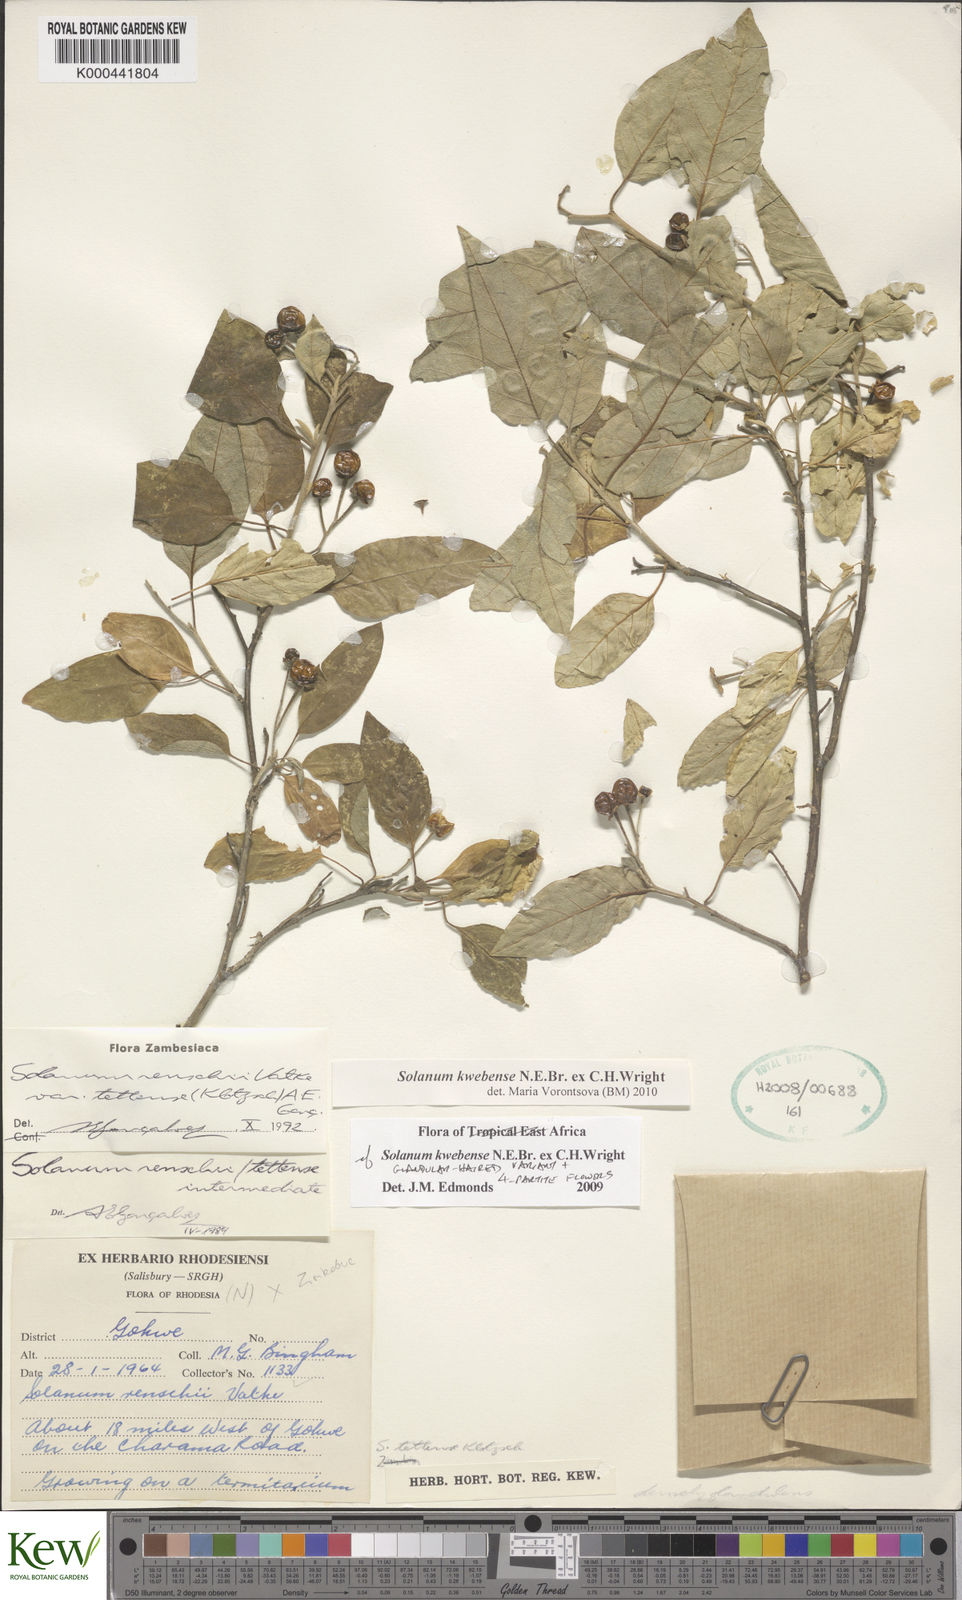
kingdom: Plantae
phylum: Tracheophyta
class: Magnoliopsida
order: Solanales
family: Solanaceae
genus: Solanum
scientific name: Solanum tettense
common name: Mozambique bitter apple
